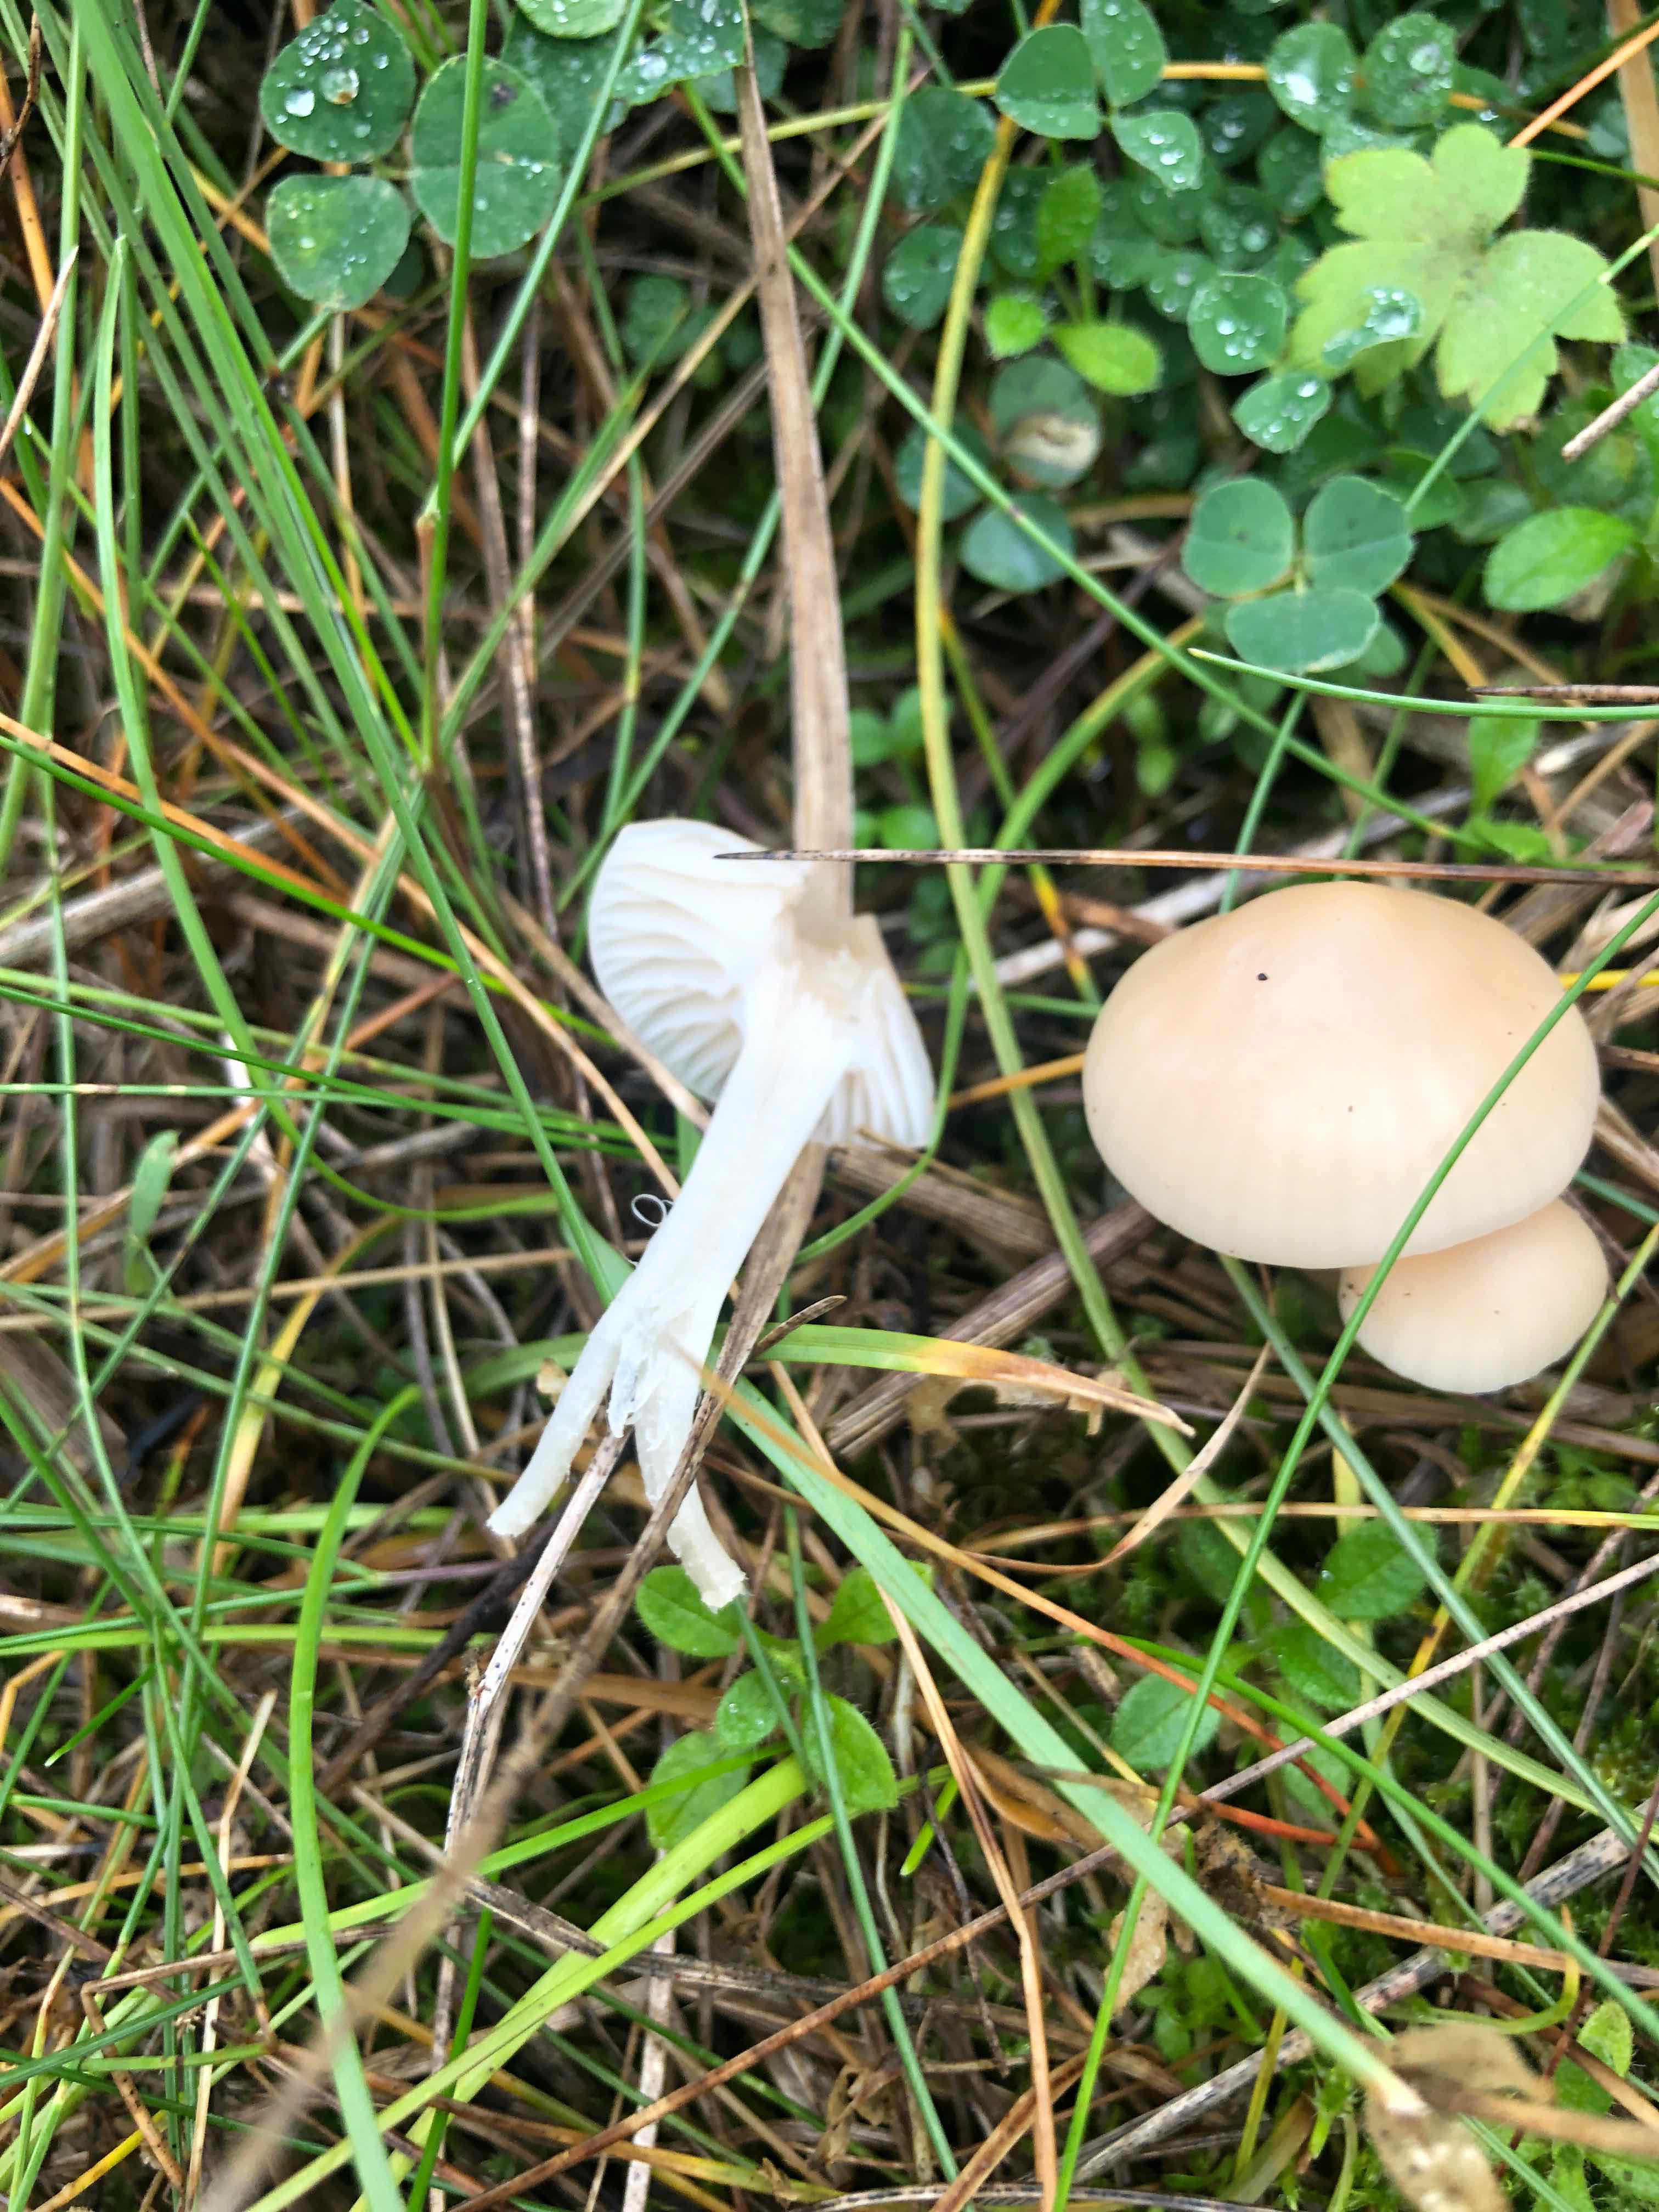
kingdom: Fungi
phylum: Basidiomycota
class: Agaricomycetes
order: Agaricales
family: Hygrophoraceae
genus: Cuphophyllus
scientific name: Cuphophyllus russocoriaceus
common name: ruslæder-vokshat
